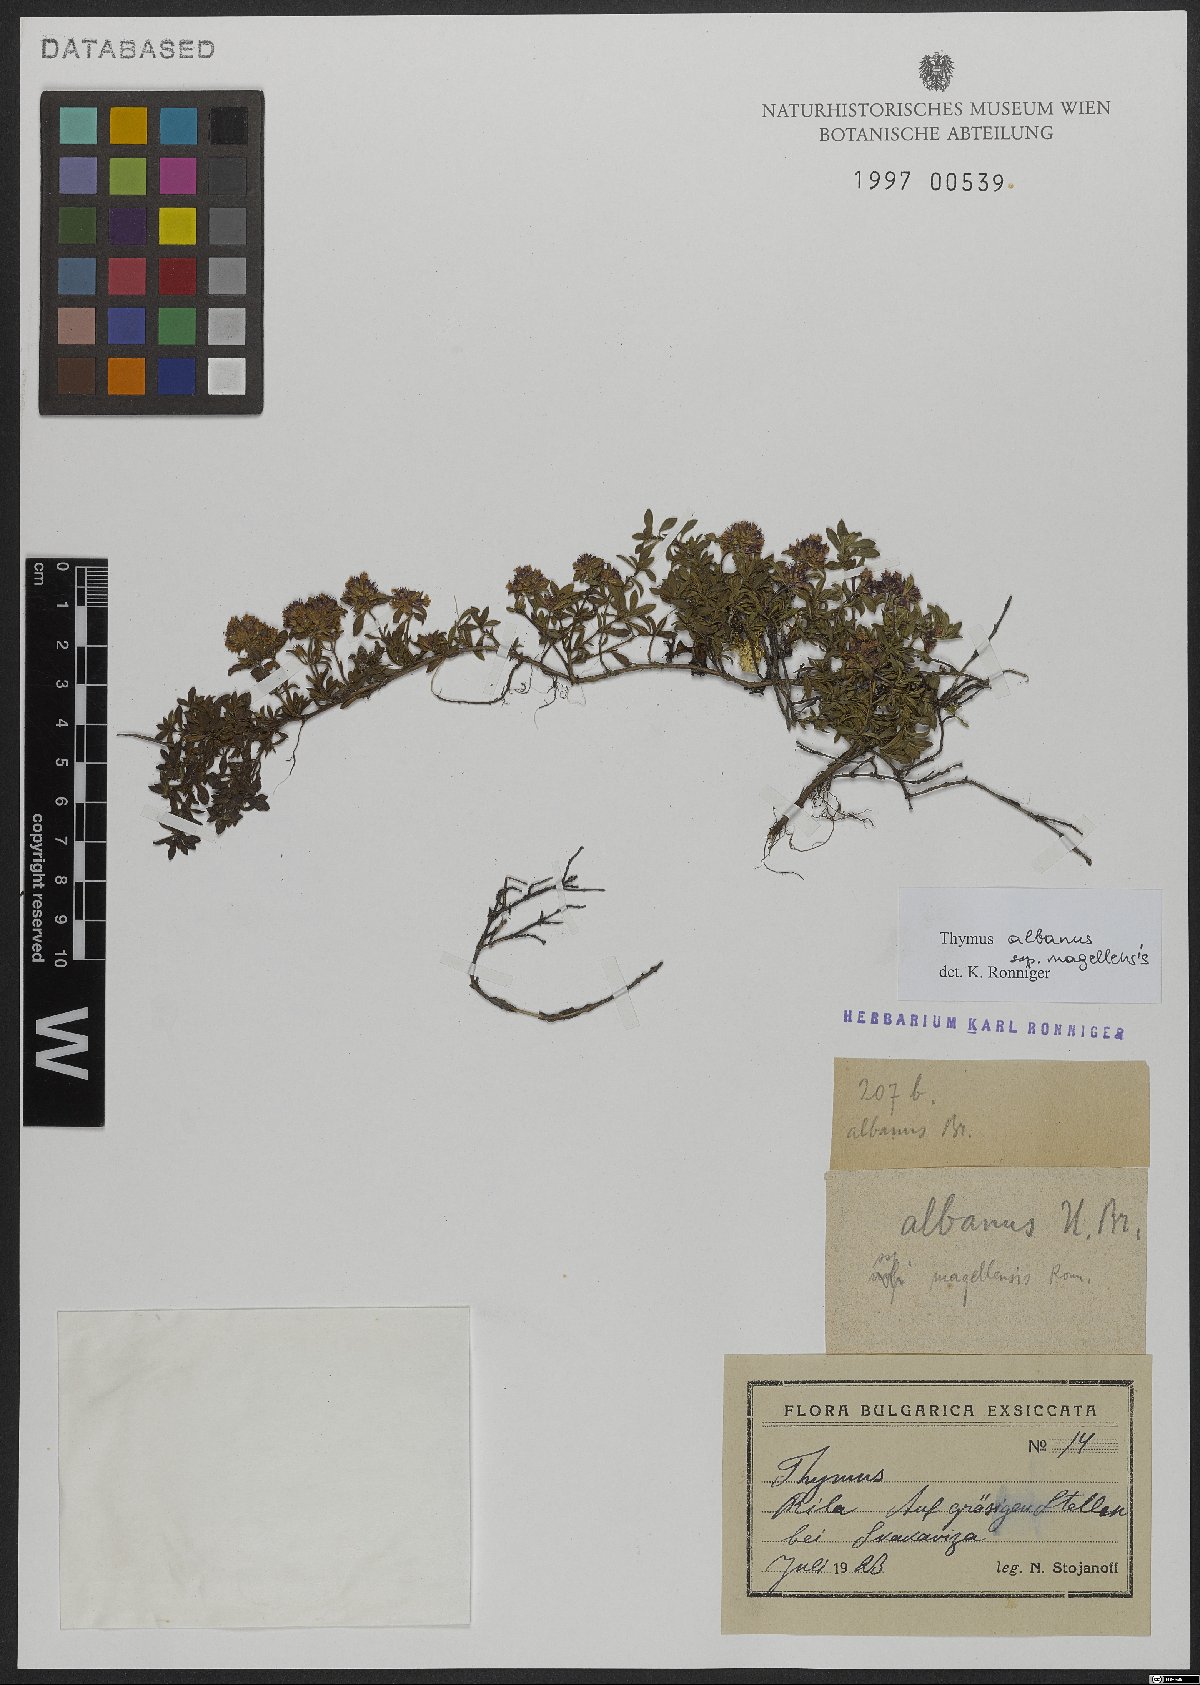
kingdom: Plantae
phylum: Tracheophyta
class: Magnoliopsida
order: Lamiales
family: Lamiaceae
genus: Thymus
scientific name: Thymus zygiformis
